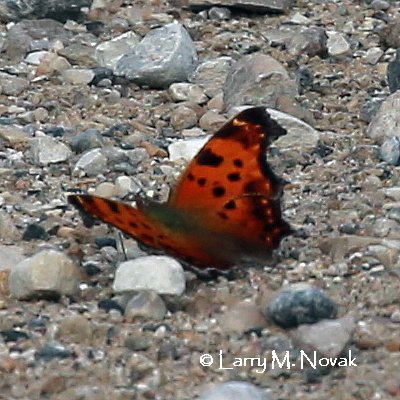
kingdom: Animalia
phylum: Arthropoda
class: Insecta
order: Lepidoptera
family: Nymphalidae
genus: Polygonia
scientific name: Polygonia comma
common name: Eastern Comma
